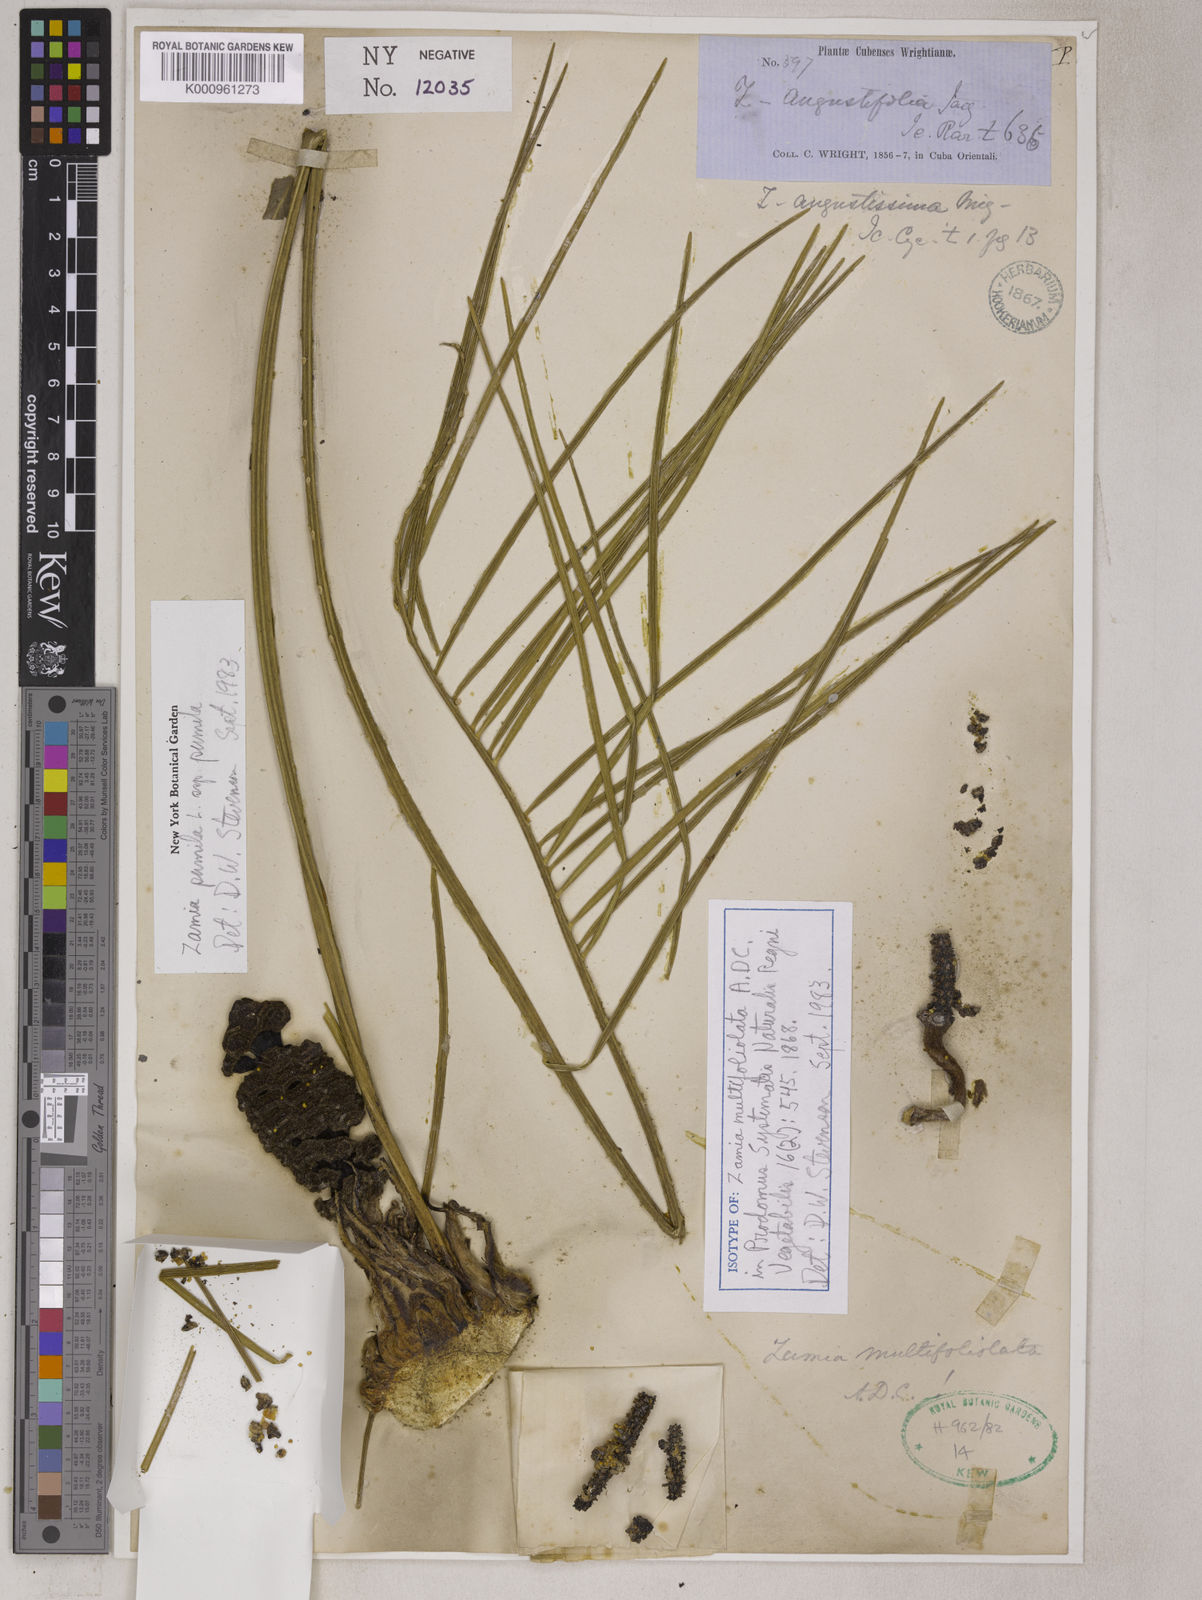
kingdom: Plantae
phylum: Tracheophyta
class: Cycadopsida
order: Cycadales
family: Zamiaceae
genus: Zamia
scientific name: Zamia angustifolia
